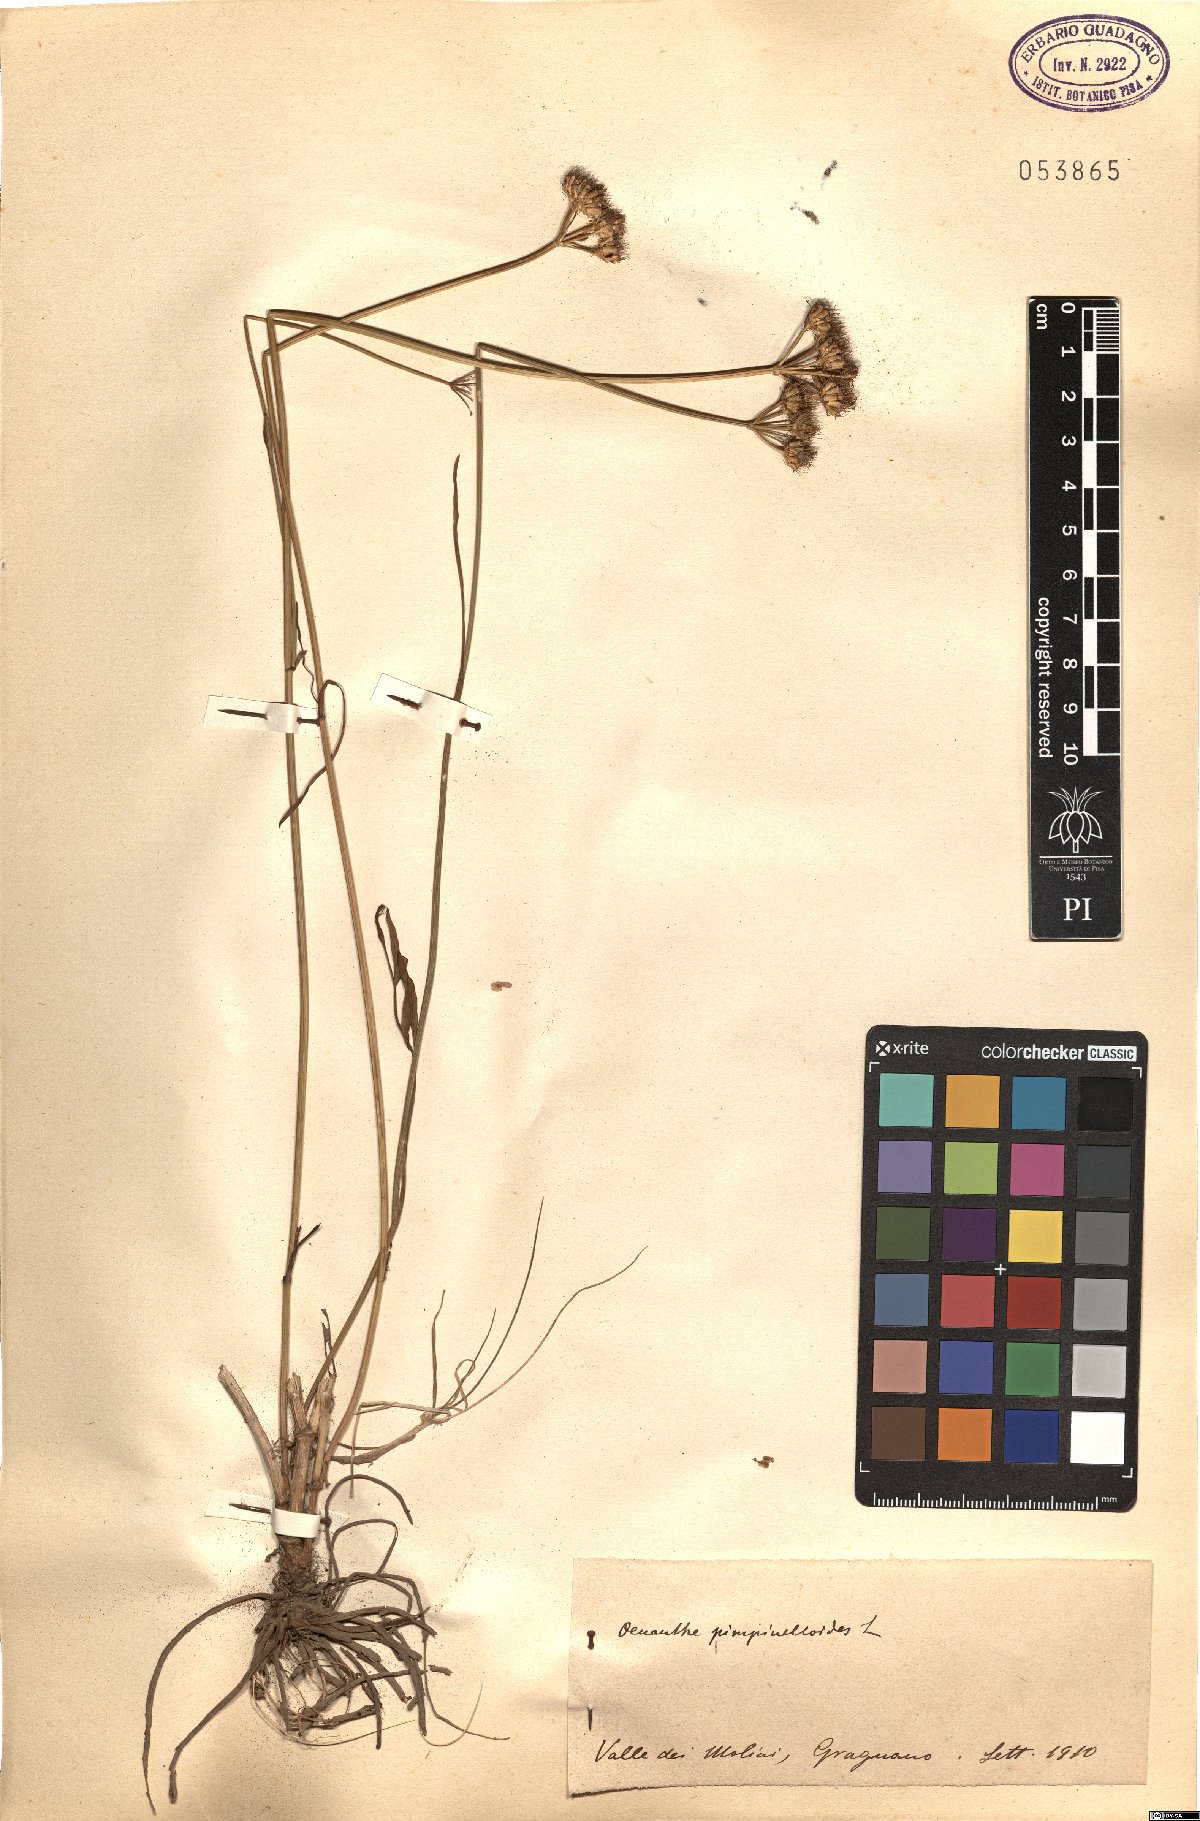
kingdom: Plantae
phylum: Tracheophyta
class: Magnoliopsida
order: Apiales
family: Apiaceae
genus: Oenanthe
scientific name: Oenanthe pimpinelloides
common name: Corky-fruited water-dropwort
